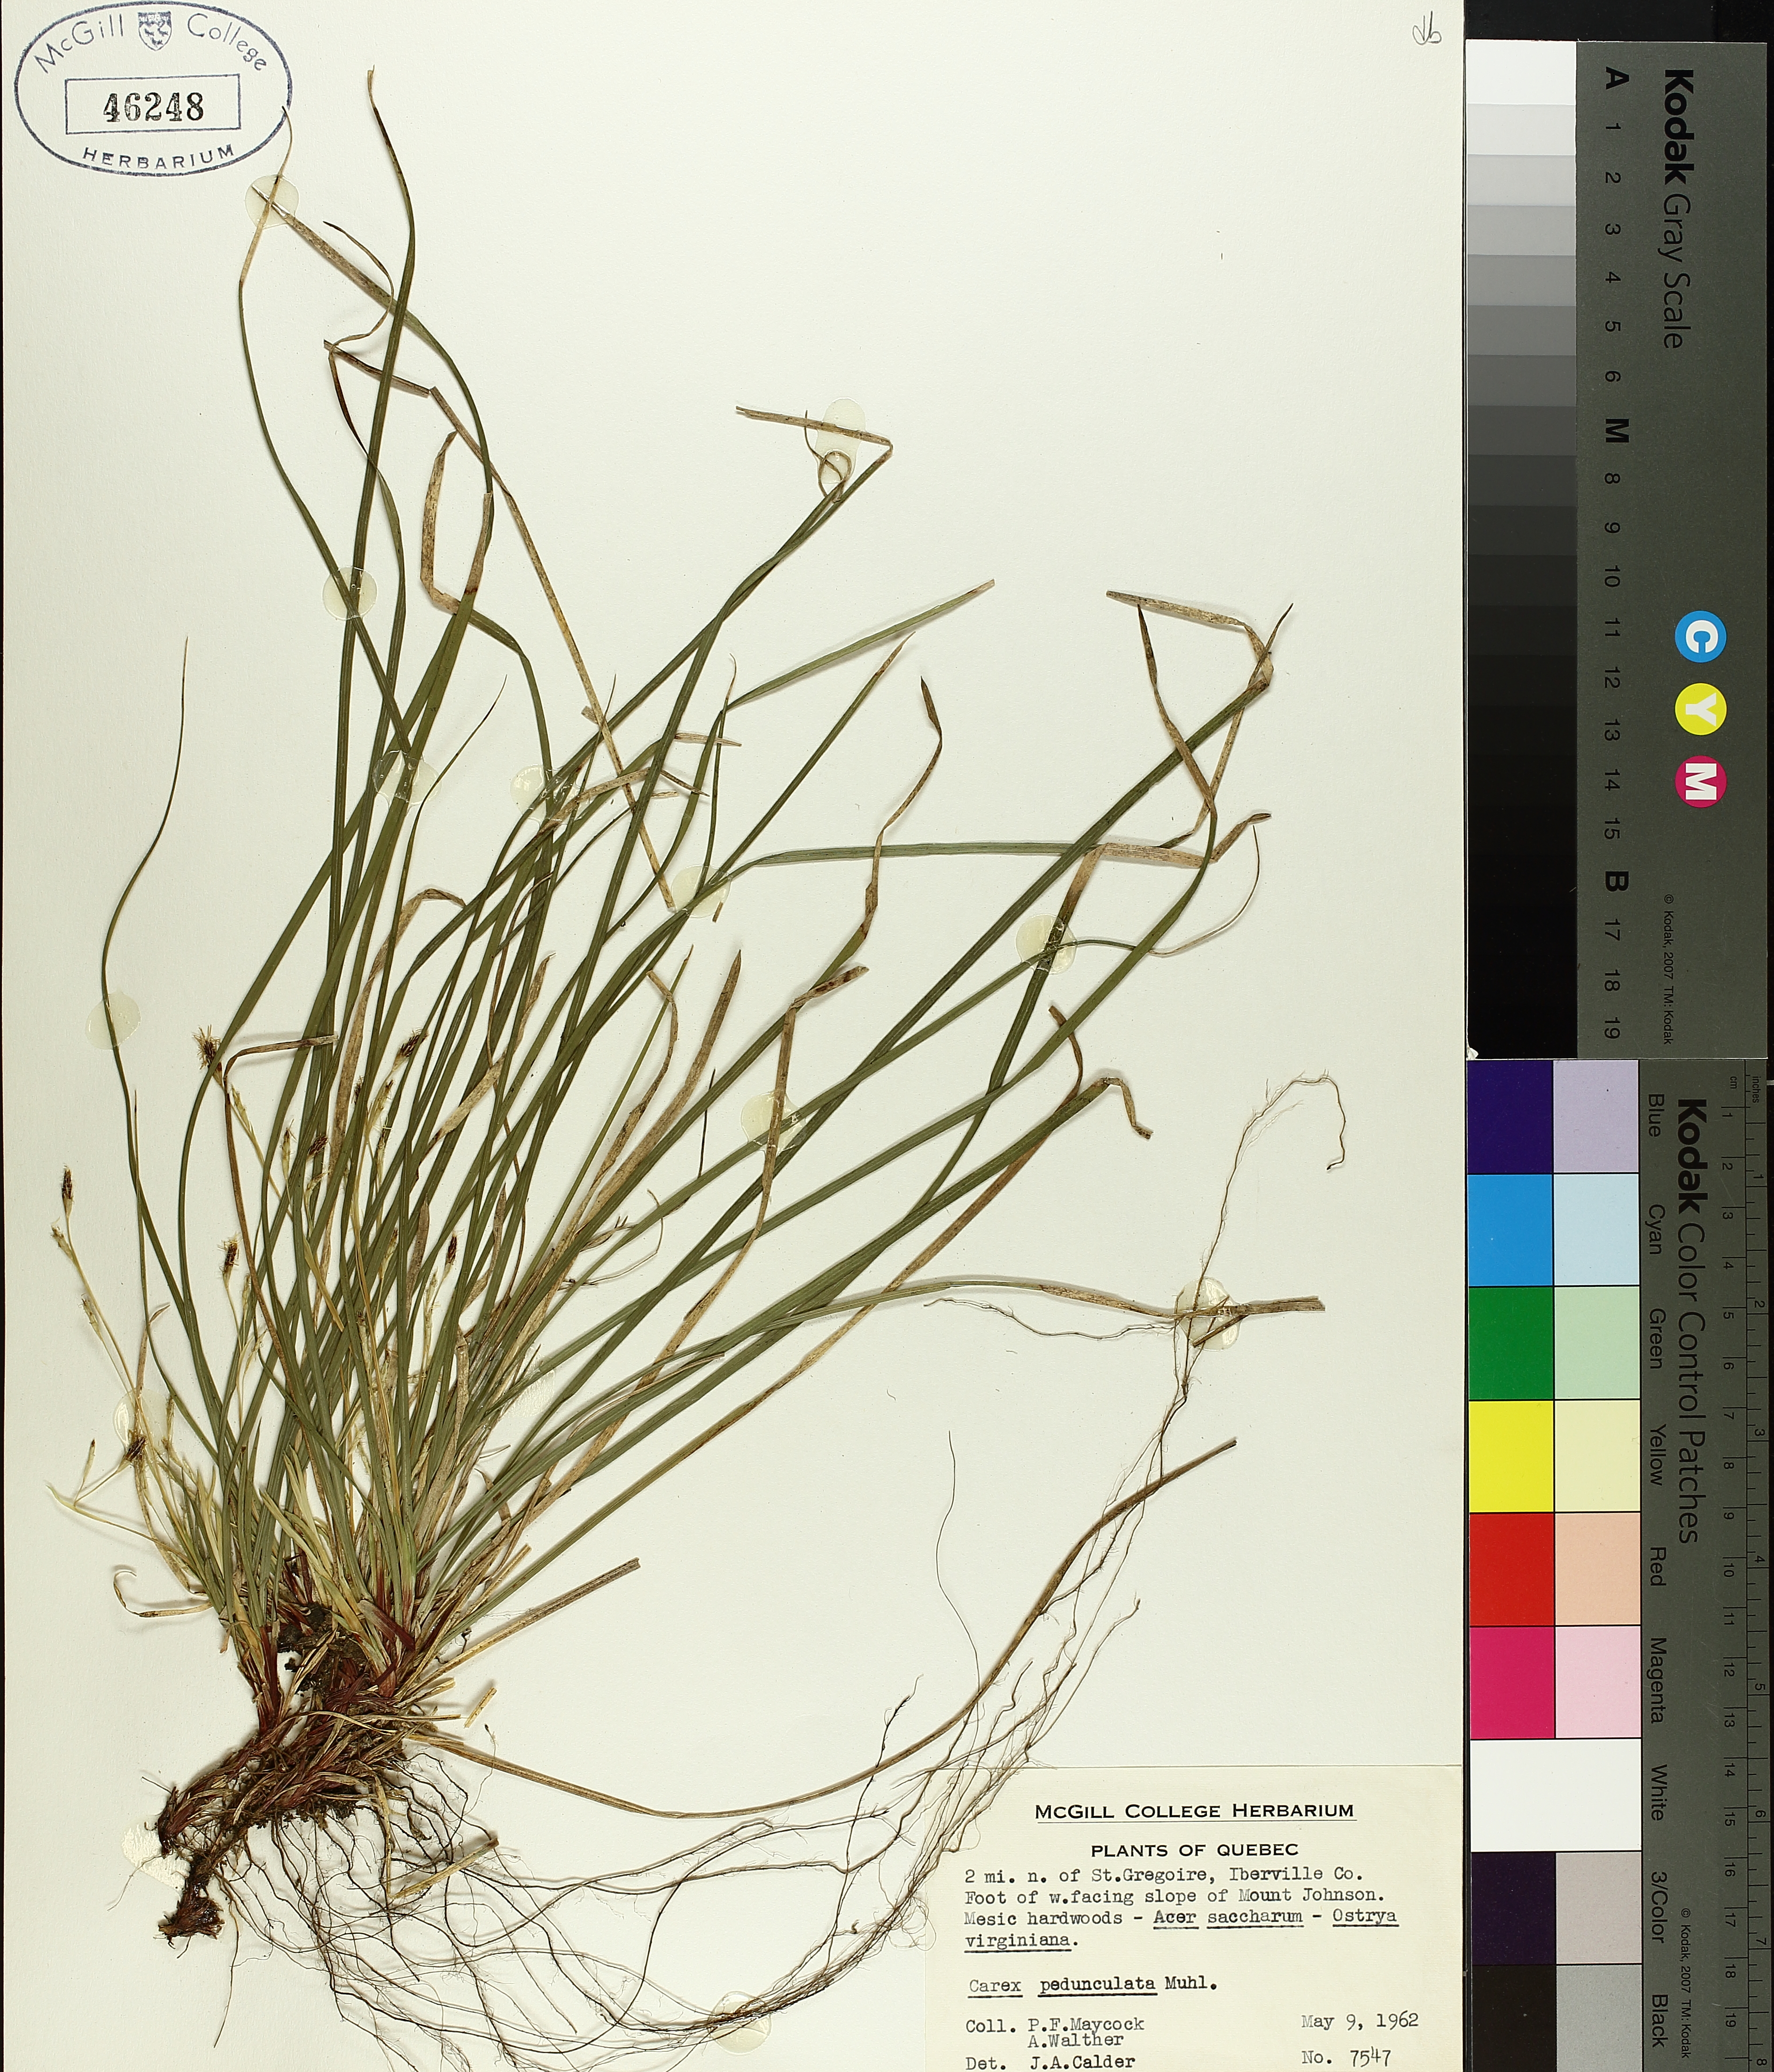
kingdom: Plantae
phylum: Tracheophyta
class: Liliopsida
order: Poales
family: Cyperaceae
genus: Carex
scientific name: Carex pedunculata
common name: Pedunculate sedge
